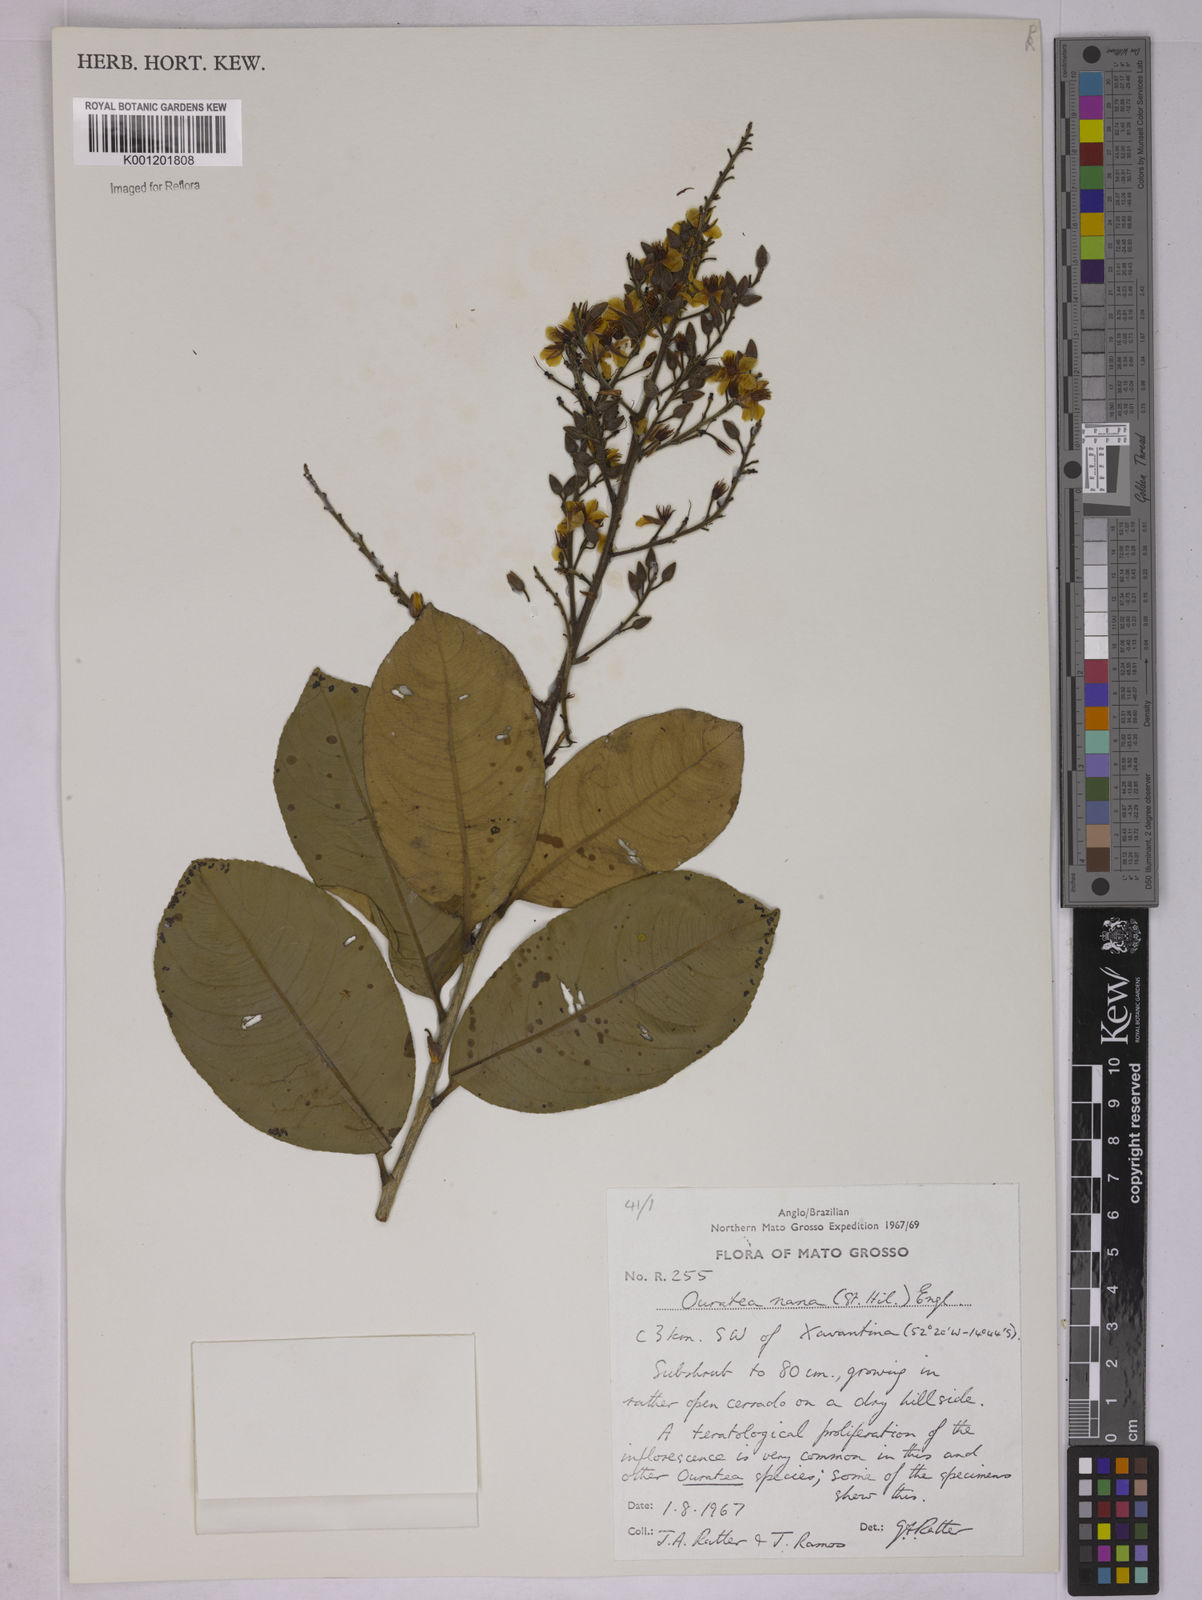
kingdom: Plantae
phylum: Tracheophyta
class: Magnoliopsida
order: Malpighiales
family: Ochnaceae
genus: Ouratea
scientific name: Ouratea nana
